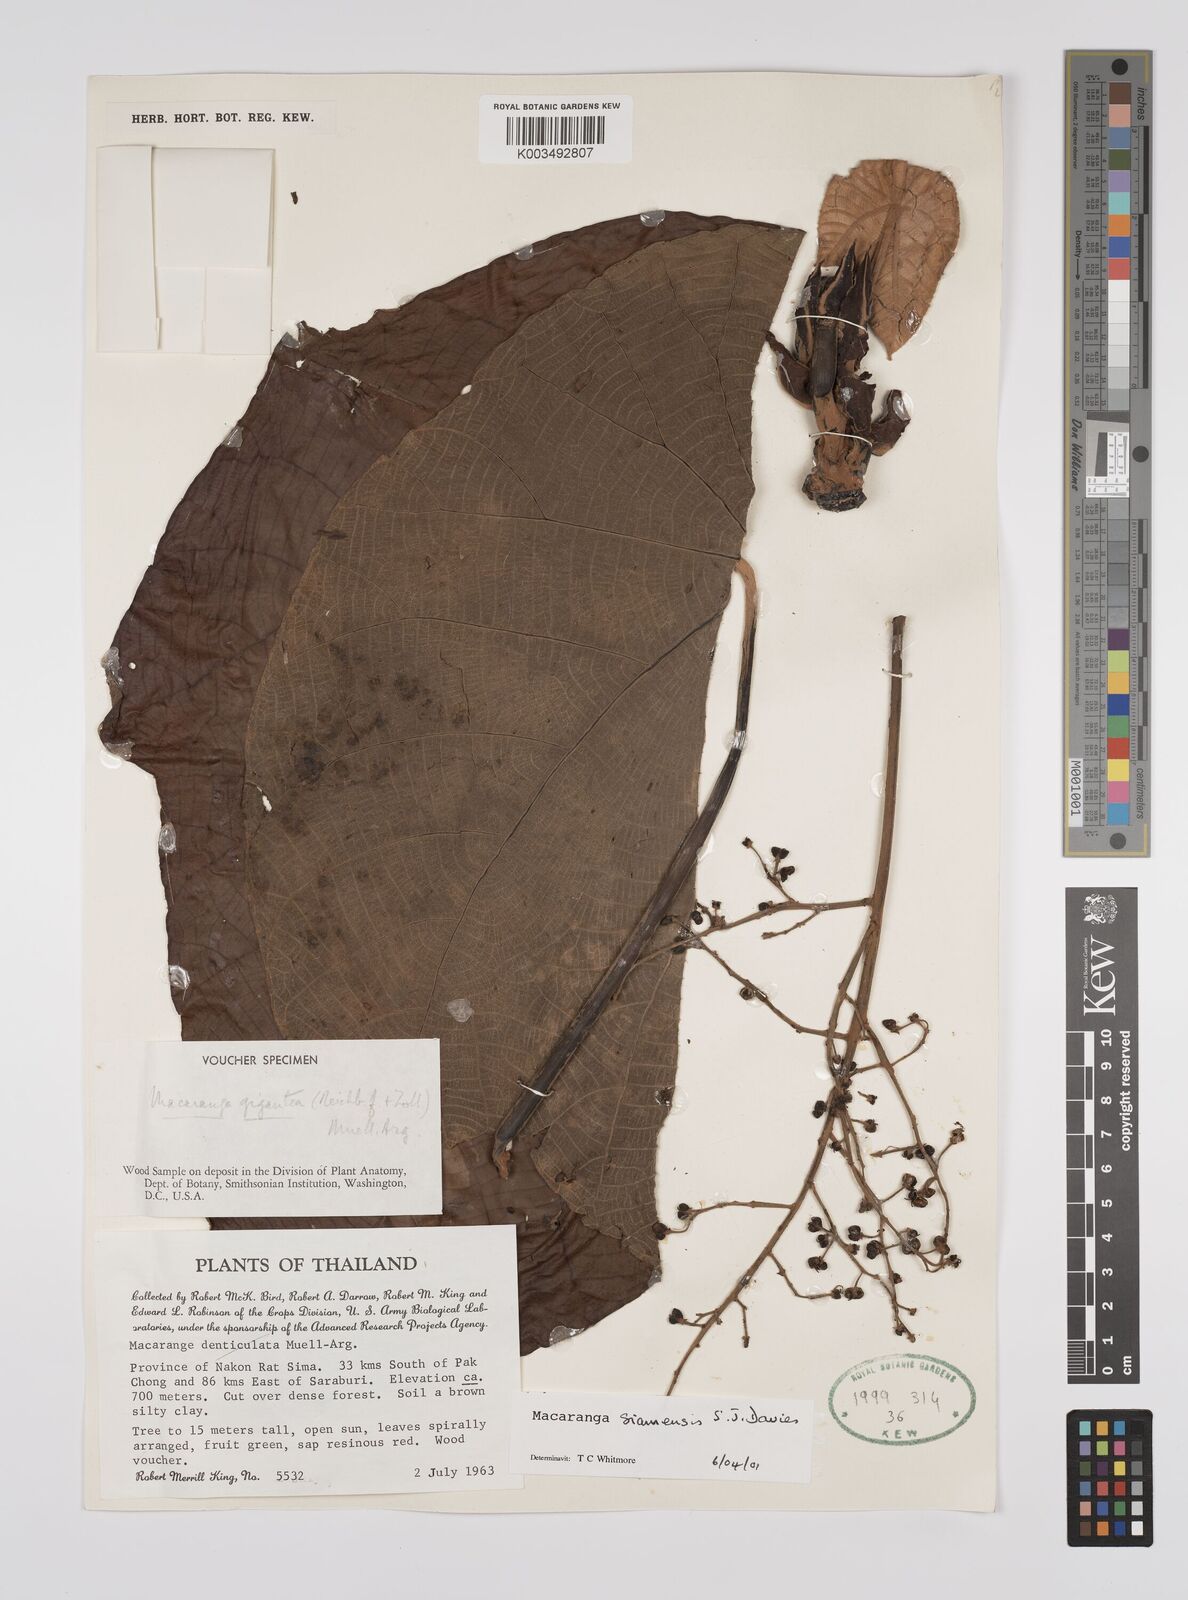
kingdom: Plantae
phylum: Tracheophyta
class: Magnoliopsida
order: Malpighiales
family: Euphorbiaceae
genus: Macaranga
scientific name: Macaranga siamensis
